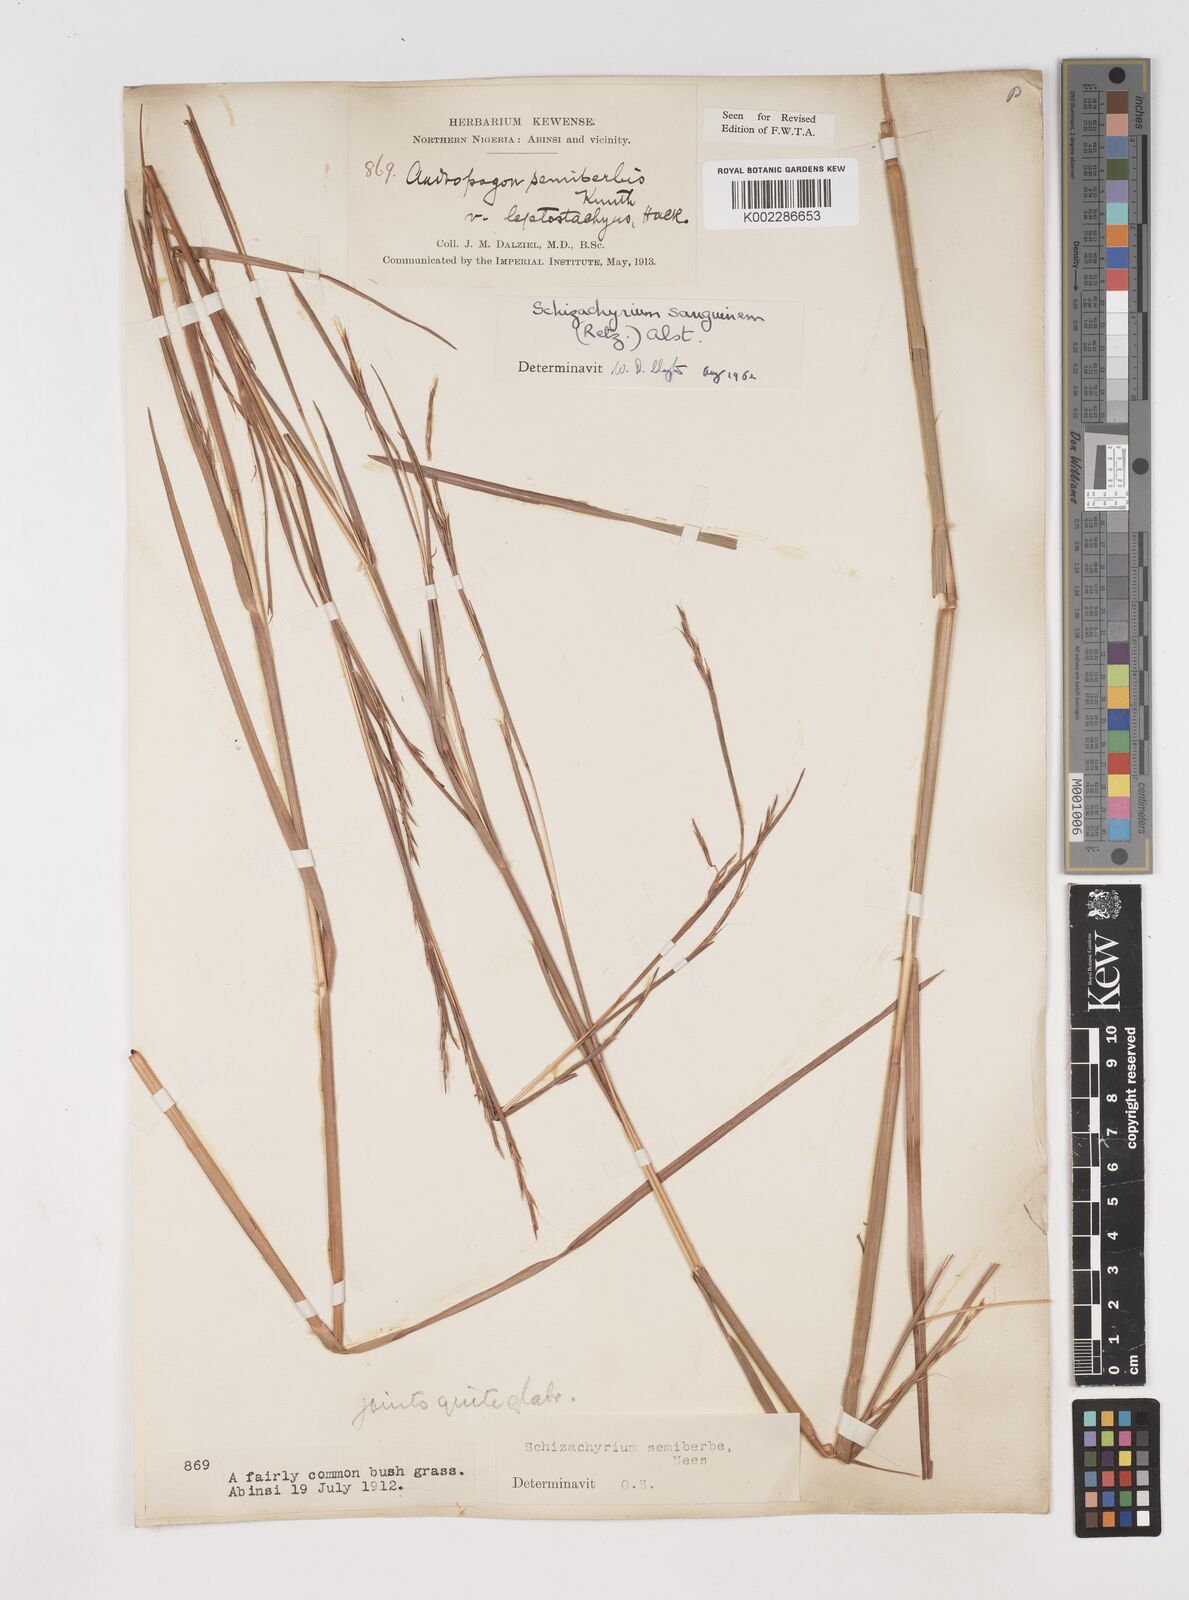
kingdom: Plantae
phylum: Tracheophyta
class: Liliopsida
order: Poales
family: Poaceae
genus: Schizachyrium
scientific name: Schizachyrium sanguineum
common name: Crimson bluestem
